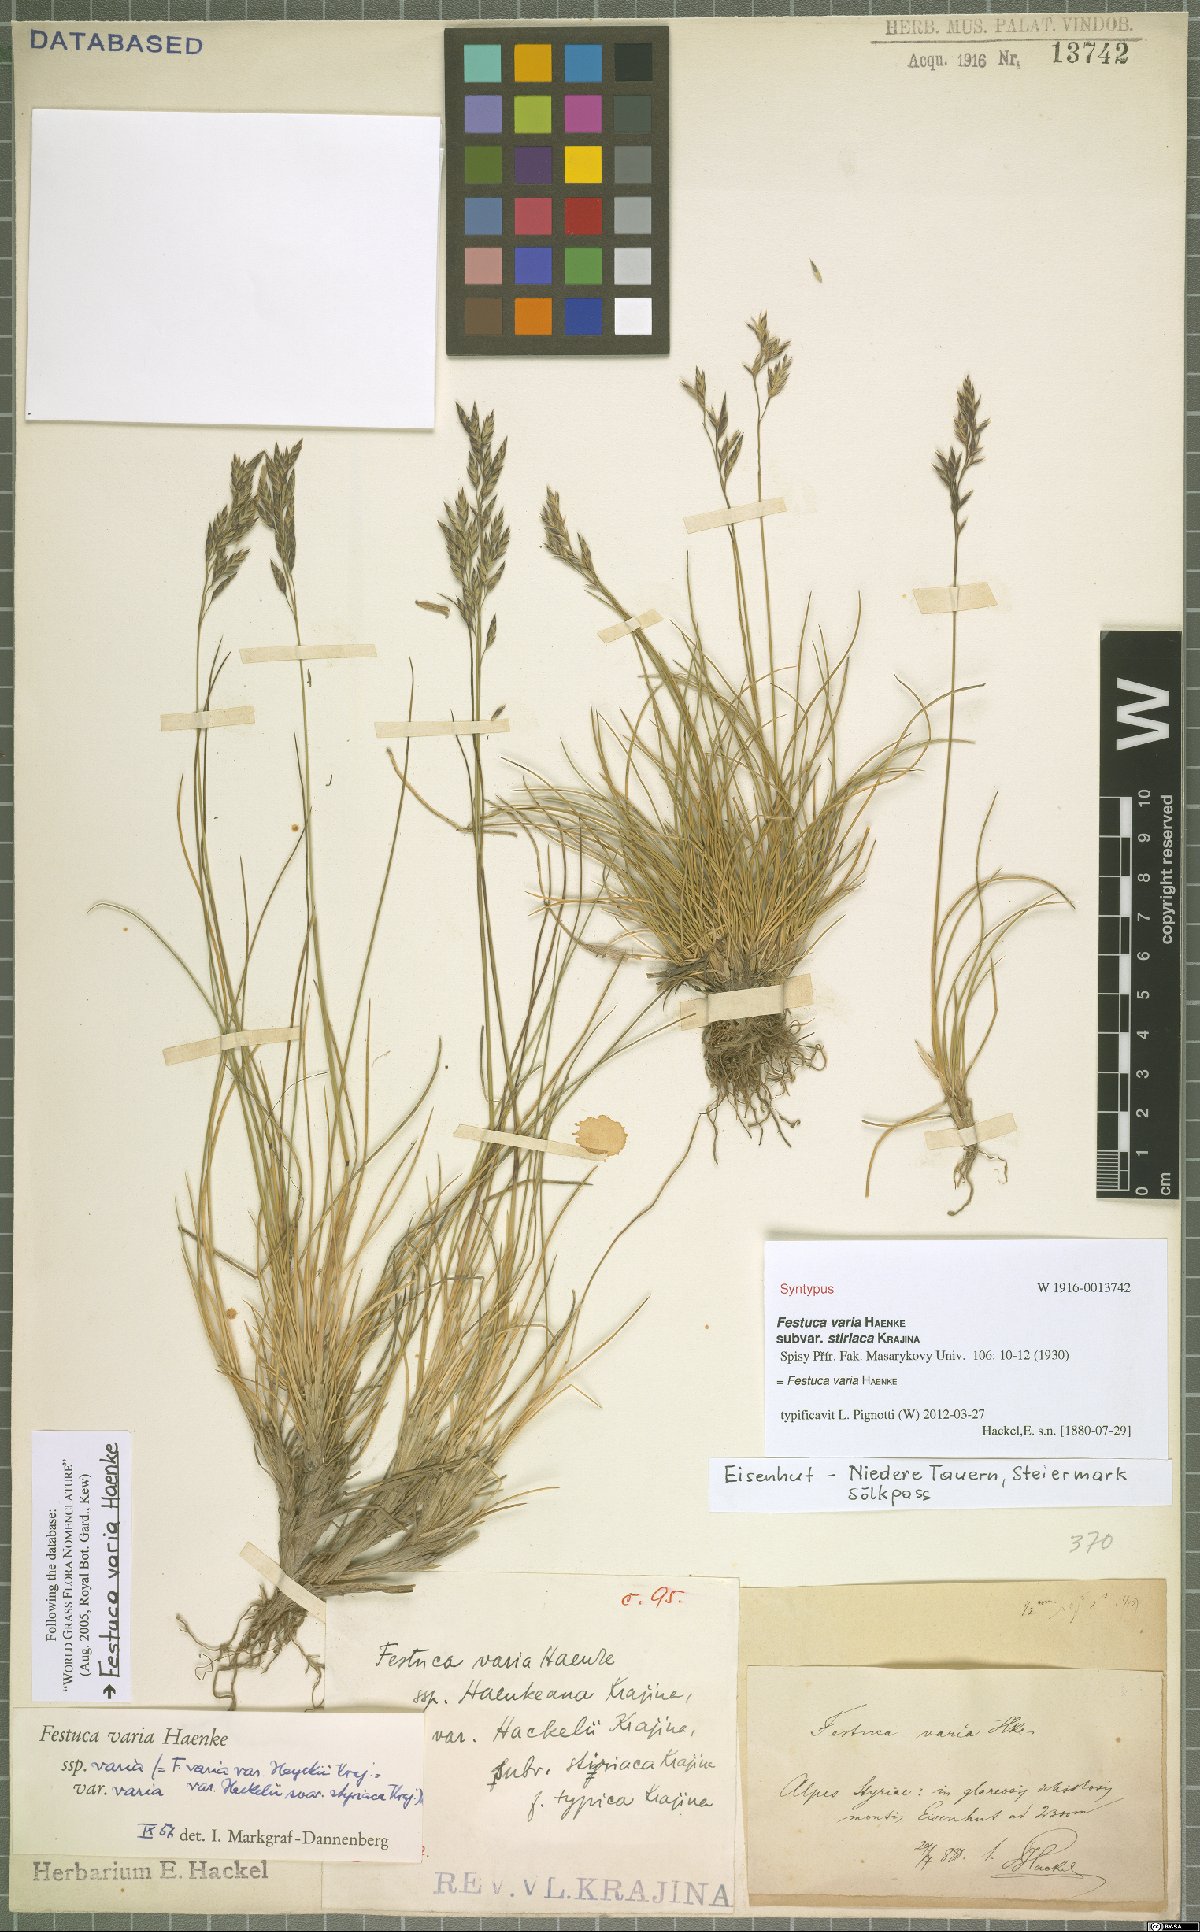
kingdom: Plantae
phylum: Tracheophyta
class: Liliopsida
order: Poales
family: Poaceae
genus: Festuca
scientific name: Festuca varia
